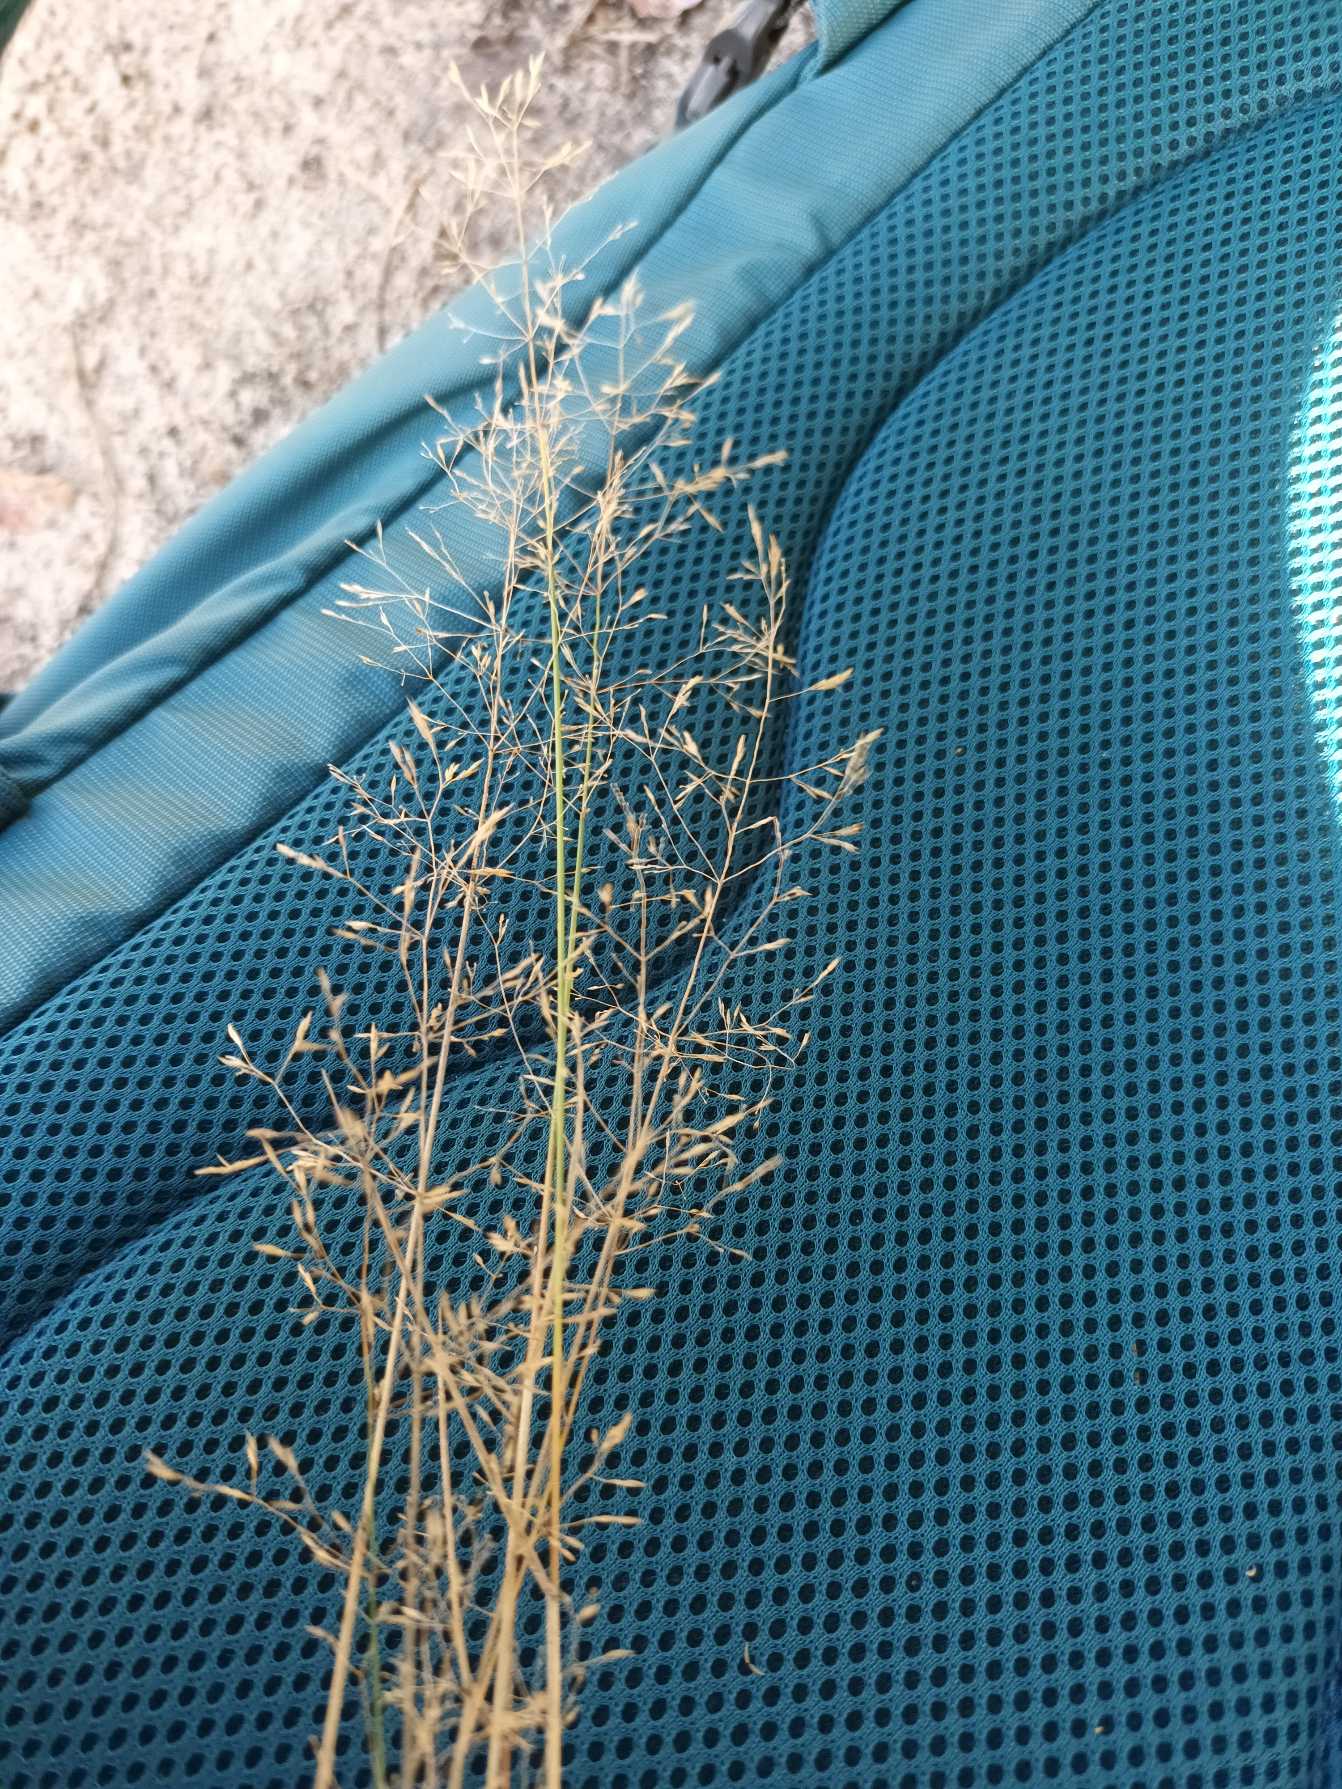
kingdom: Plantae
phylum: Tracheophyta
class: Liliopsida
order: Poales
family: Poaceae
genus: Agrostis
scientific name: Agrostis capillaris
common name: Almindelig hvene
